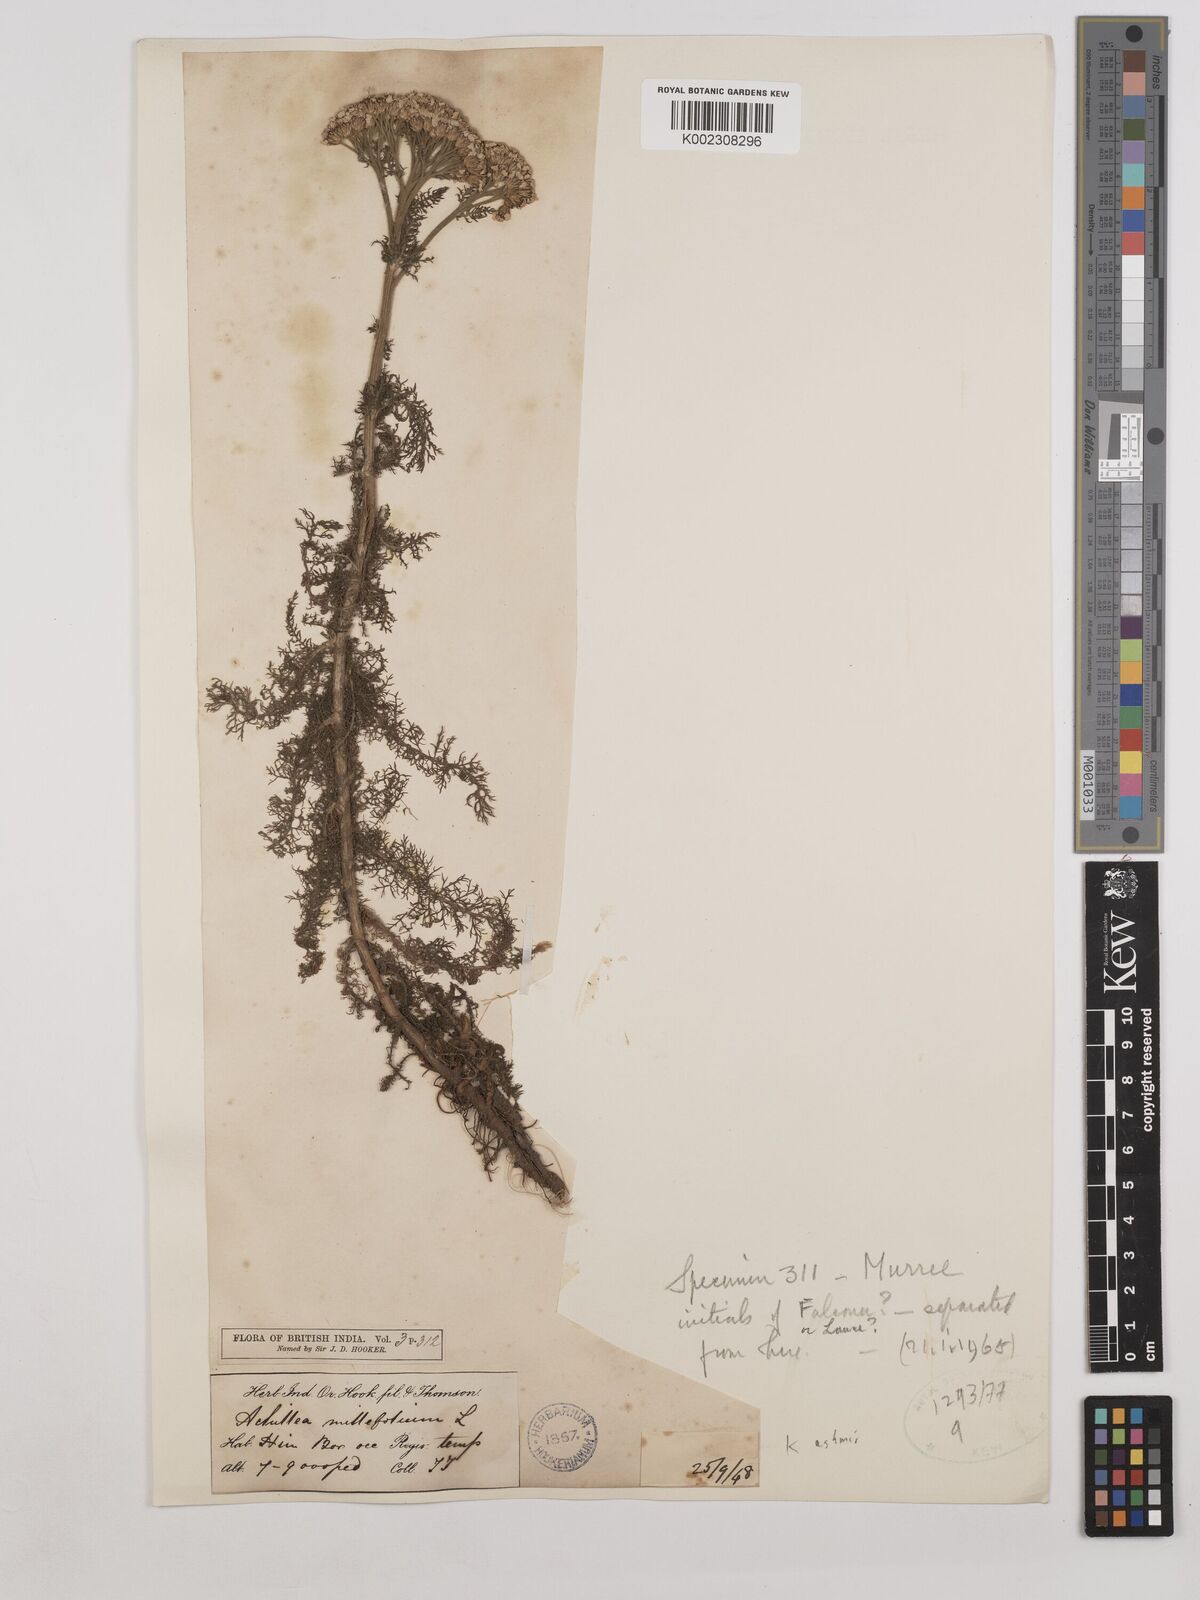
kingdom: Plantae
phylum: Tracheophyta
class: Magnoliopsida
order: Asterales
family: Asteraceae
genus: Achillea
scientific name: Achillea millefolium
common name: Yarrow
